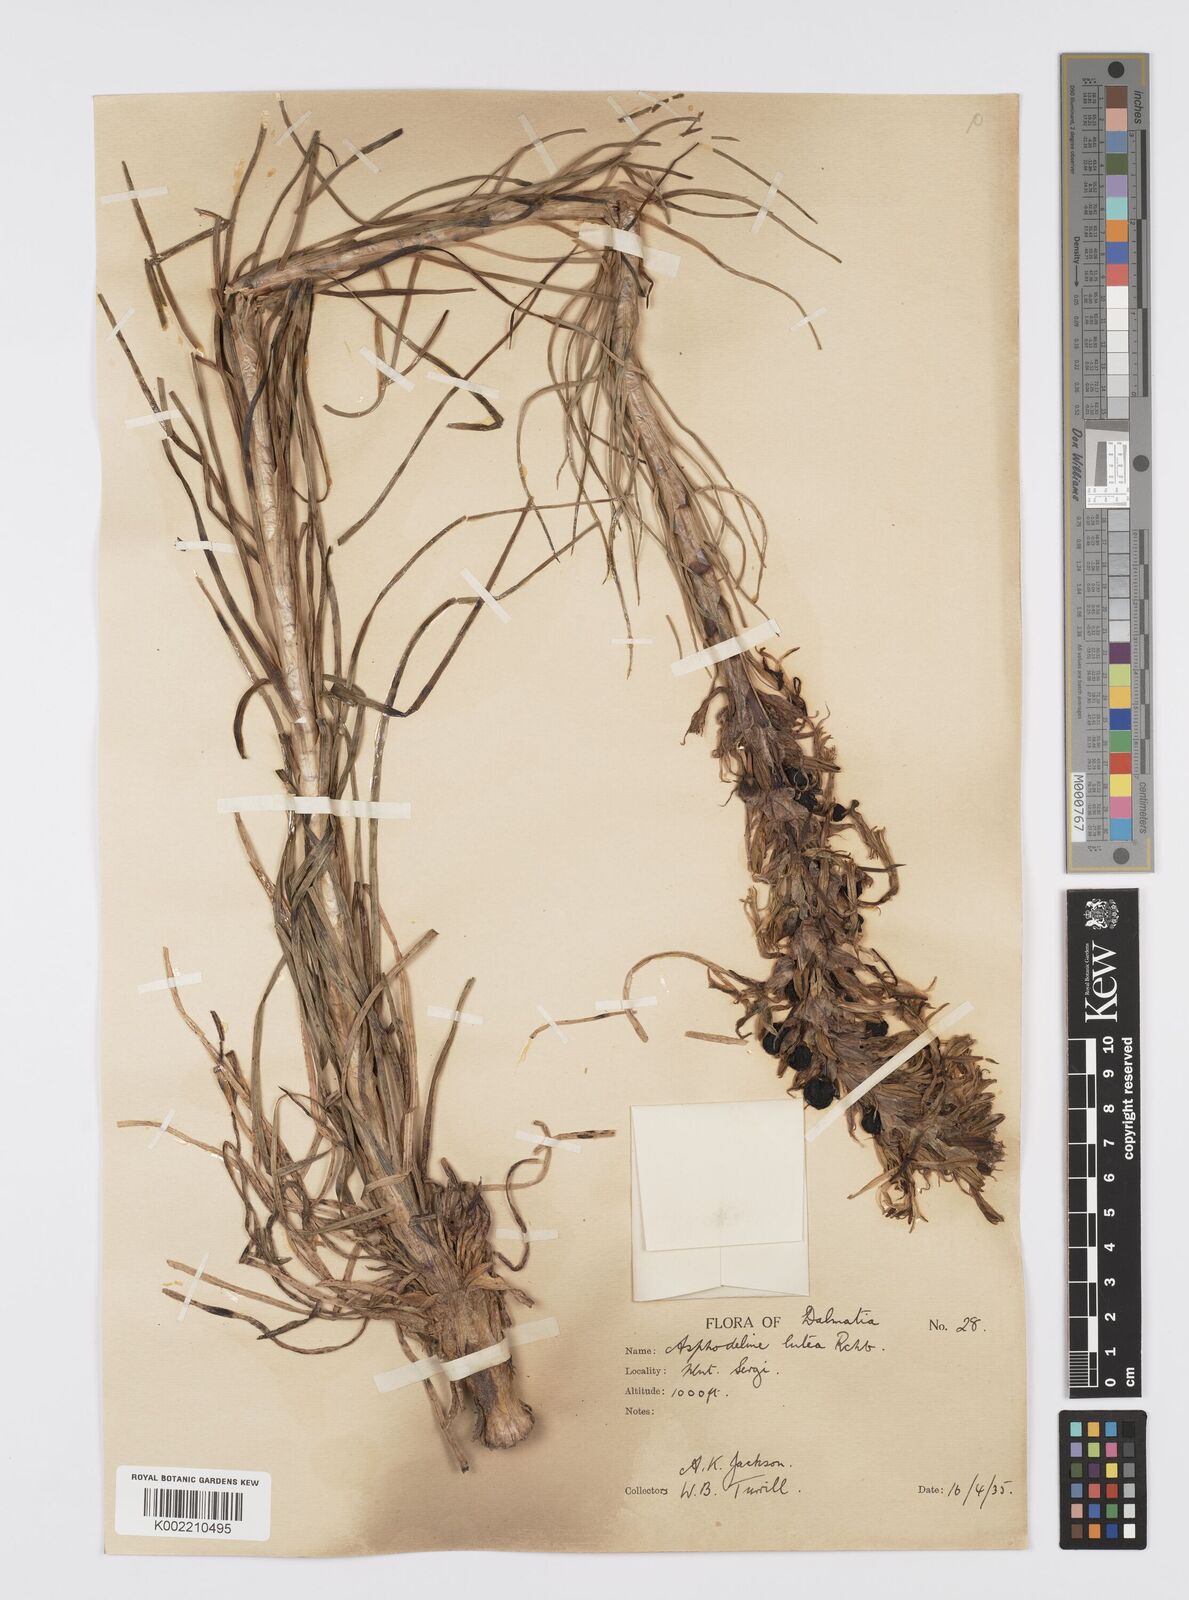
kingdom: Plantae
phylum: Tracheophyta
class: Liliopsida
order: Asparagales
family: Asphodelaceae
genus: Asphodeline
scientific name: Asphodeline lutea
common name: Yellow asphodel
